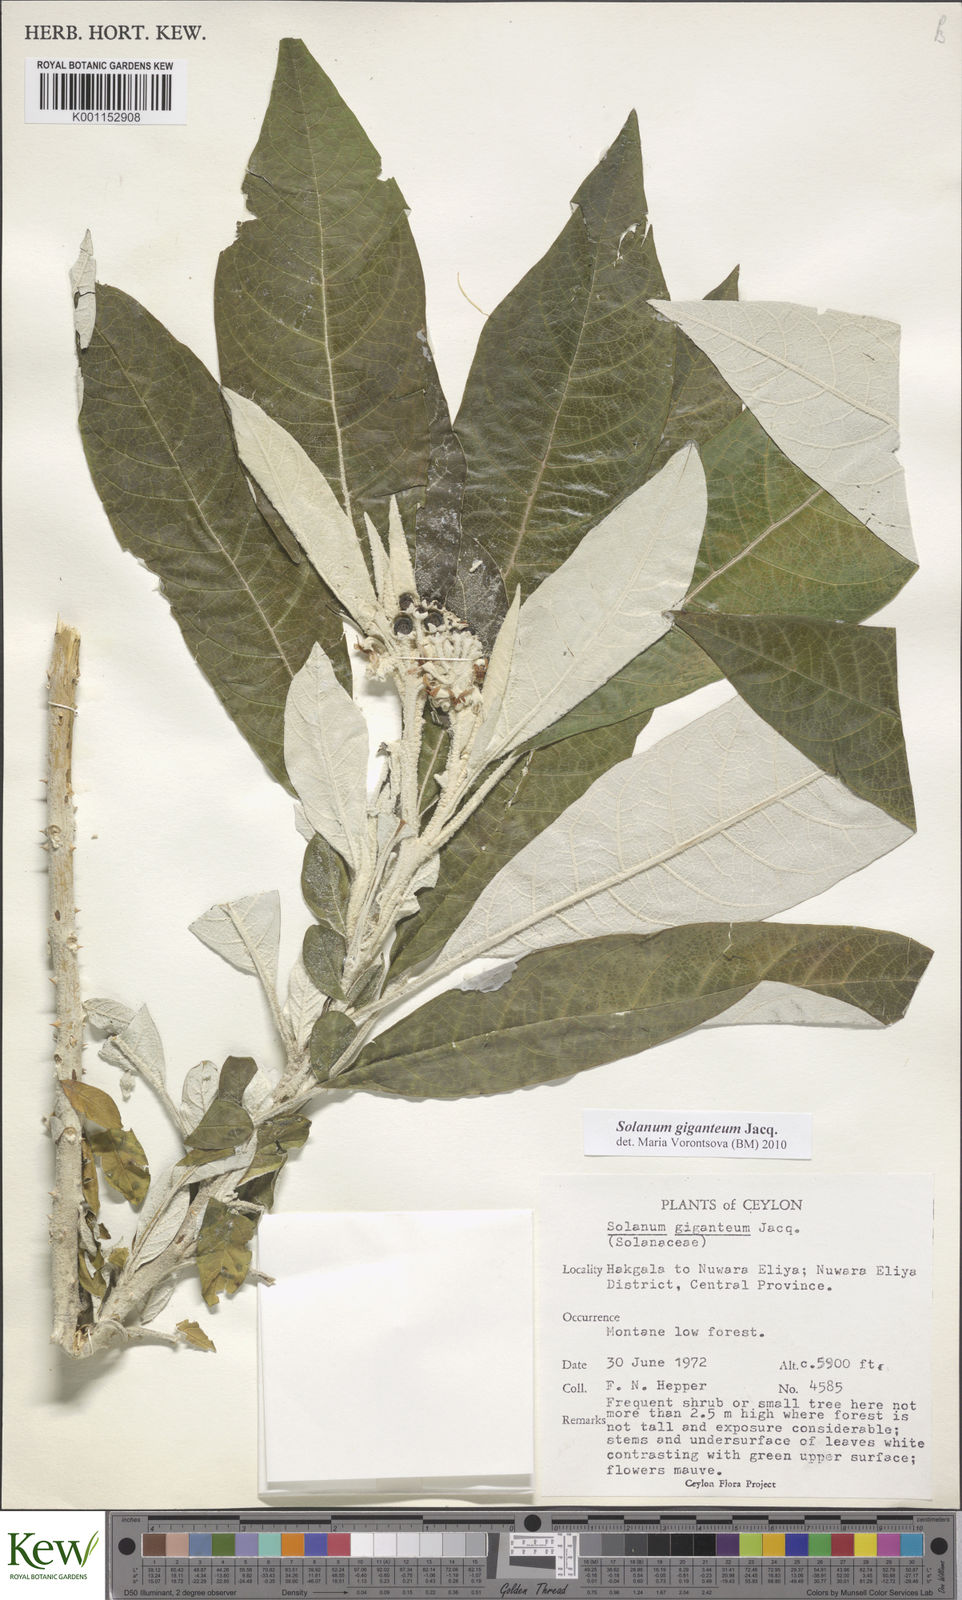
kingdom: Plantae
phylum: Tracheophyta
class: Magnoliopsida
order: Solanales
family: Solanaceae
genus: Solanum
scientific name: Solanum giganteum
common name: Healing-leaf-tree
